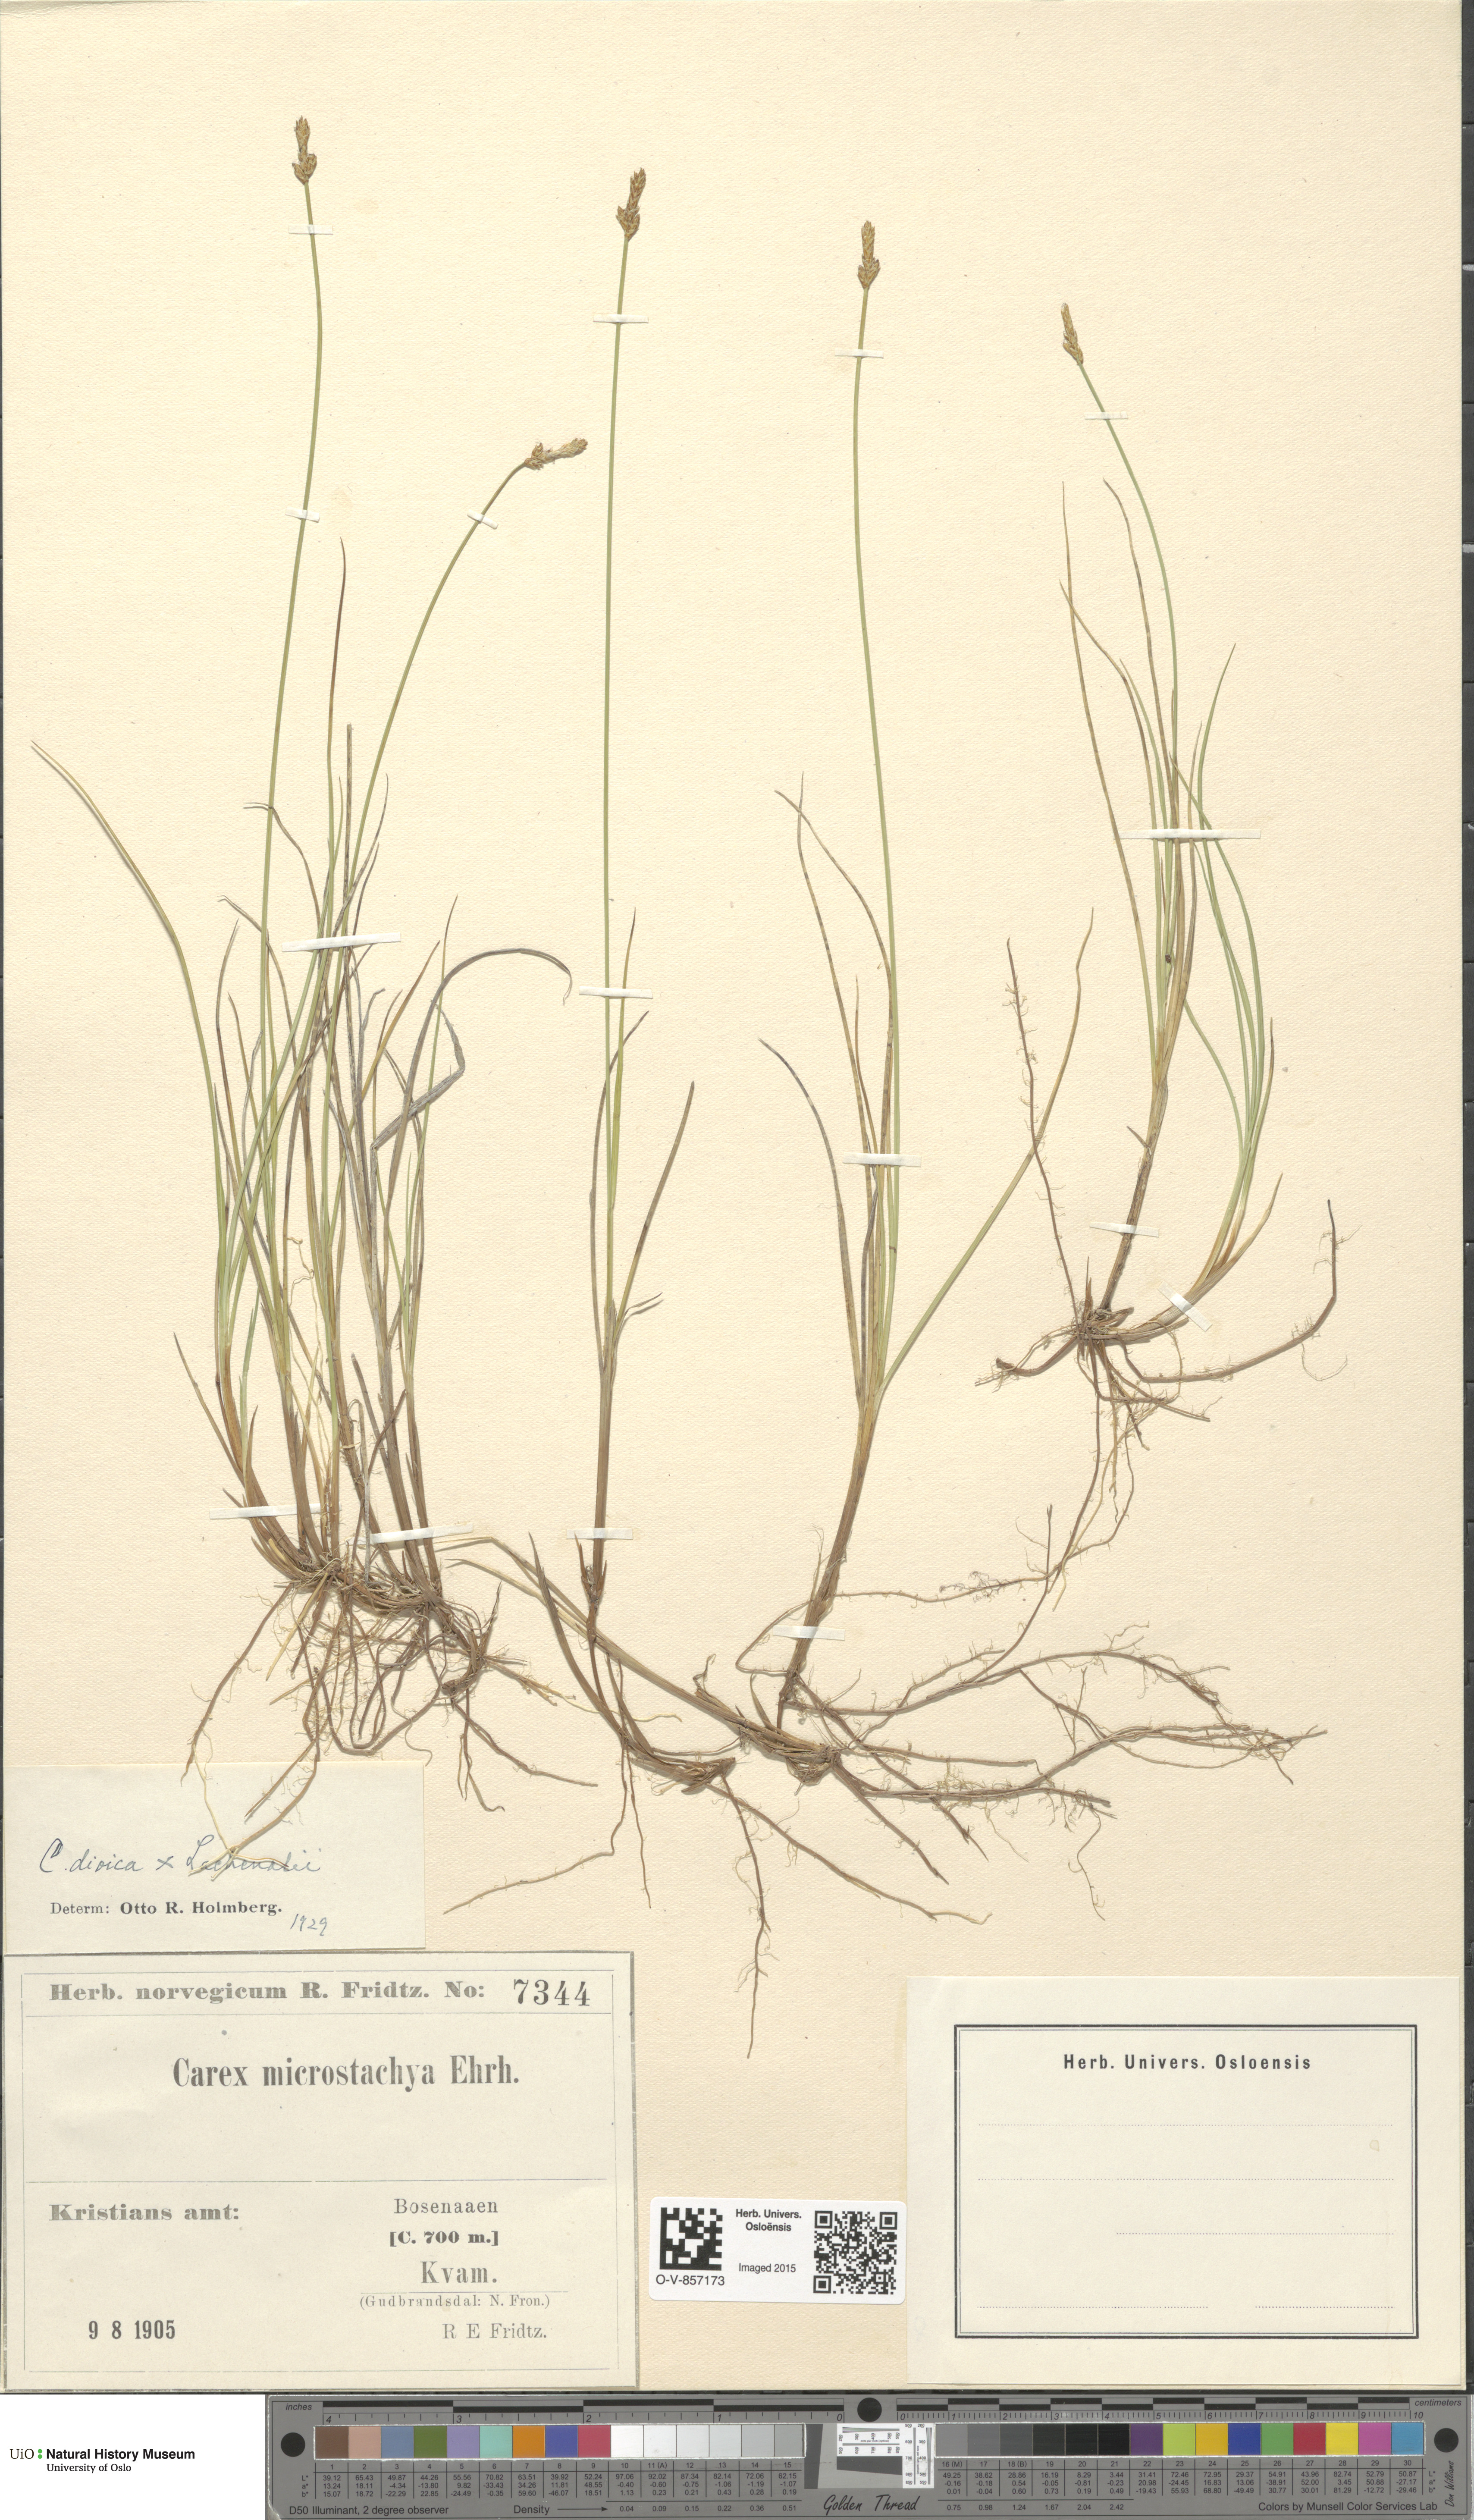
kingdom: Plantae
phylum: Tracheophyta
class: Liliopsida
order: Poales
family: Cyperaceae
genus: Carex
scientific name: Carex
